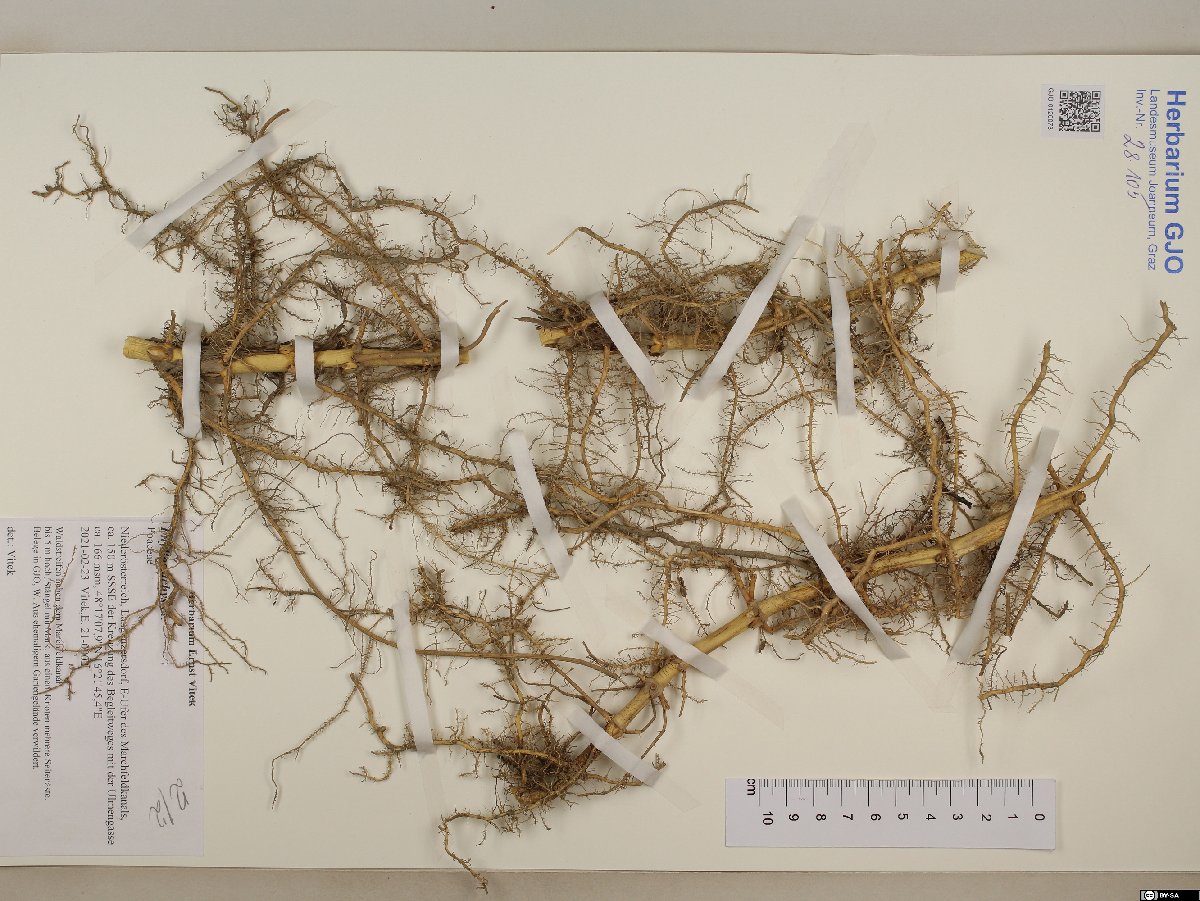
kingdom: Plantae
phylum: Tracheophyta
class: Liliopsida
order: Poales
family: Poaceae
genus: Phyllostachys
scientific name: Phyllostachys
